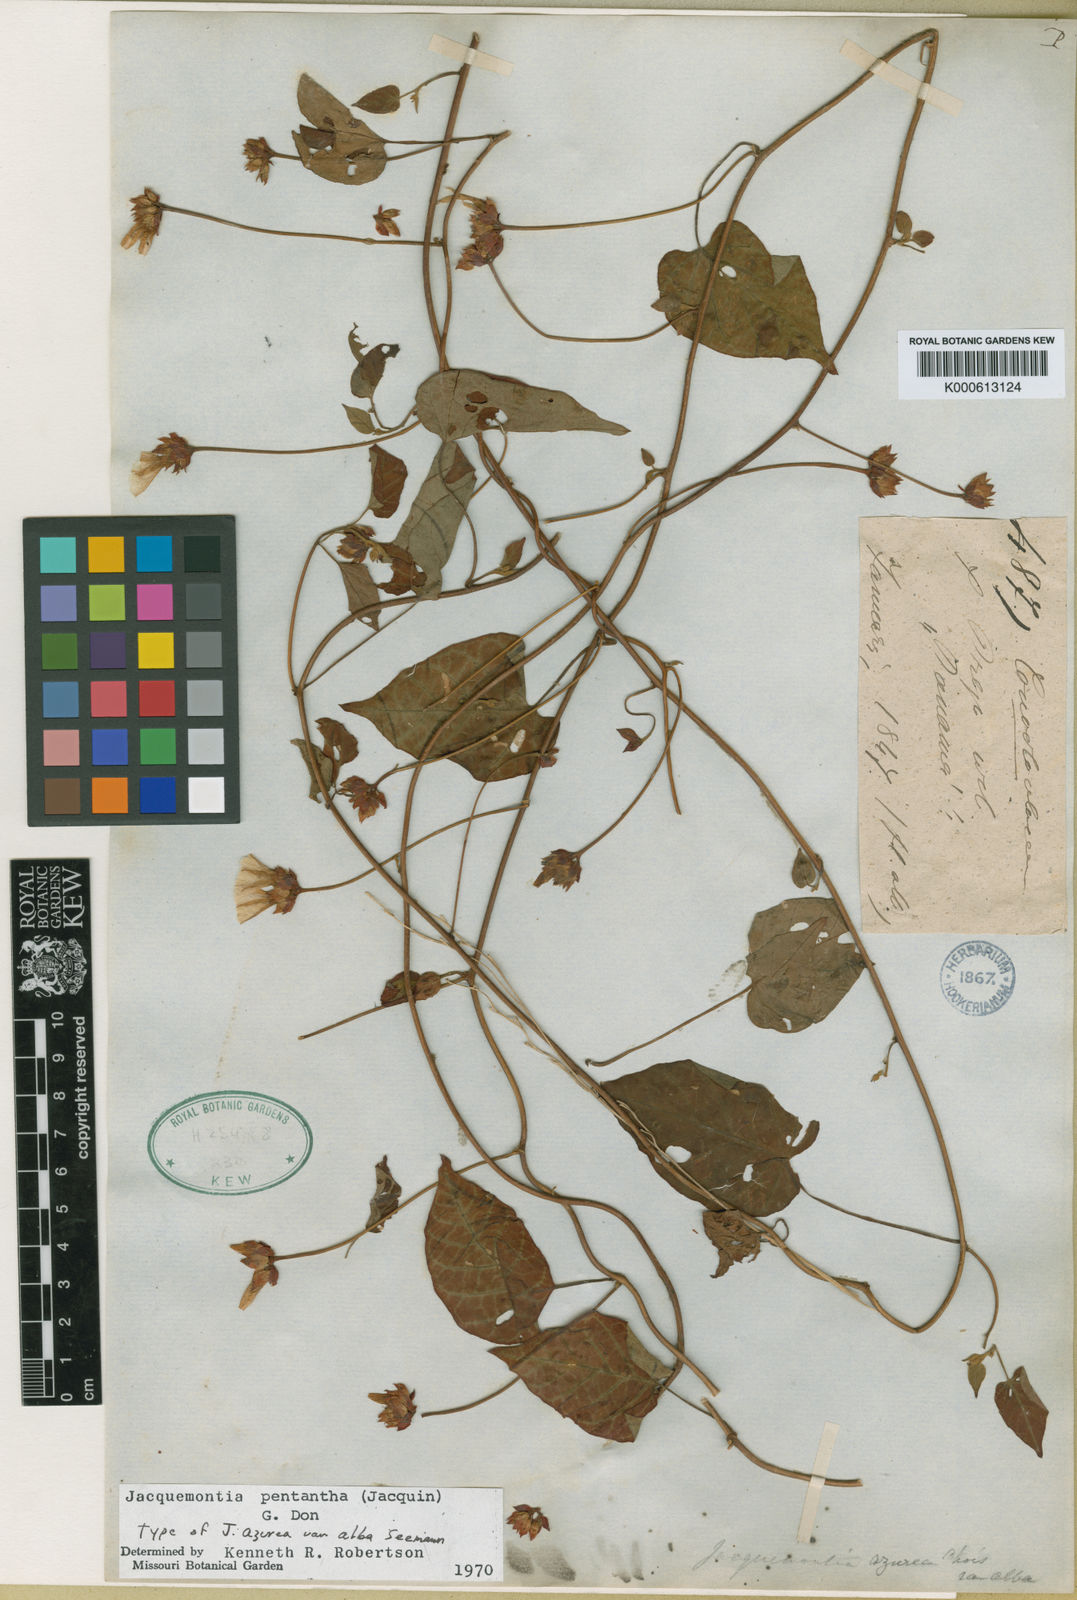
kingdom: Plantae
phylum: Tracheophyta
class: Magnoliopsida
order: Solanales
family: Convolvulaceae
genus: Jacquemontia
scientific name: Jacquemontia pentanthos
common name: Skyblue clustervine
